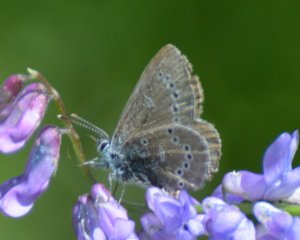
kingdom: Animalia
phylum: Arthropoda
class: Insecta
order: Lepidoptera
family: Lycaenidae
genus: Glaucopsyche
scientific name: Glaucopsyche lygdamus
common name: Silvery Blue
